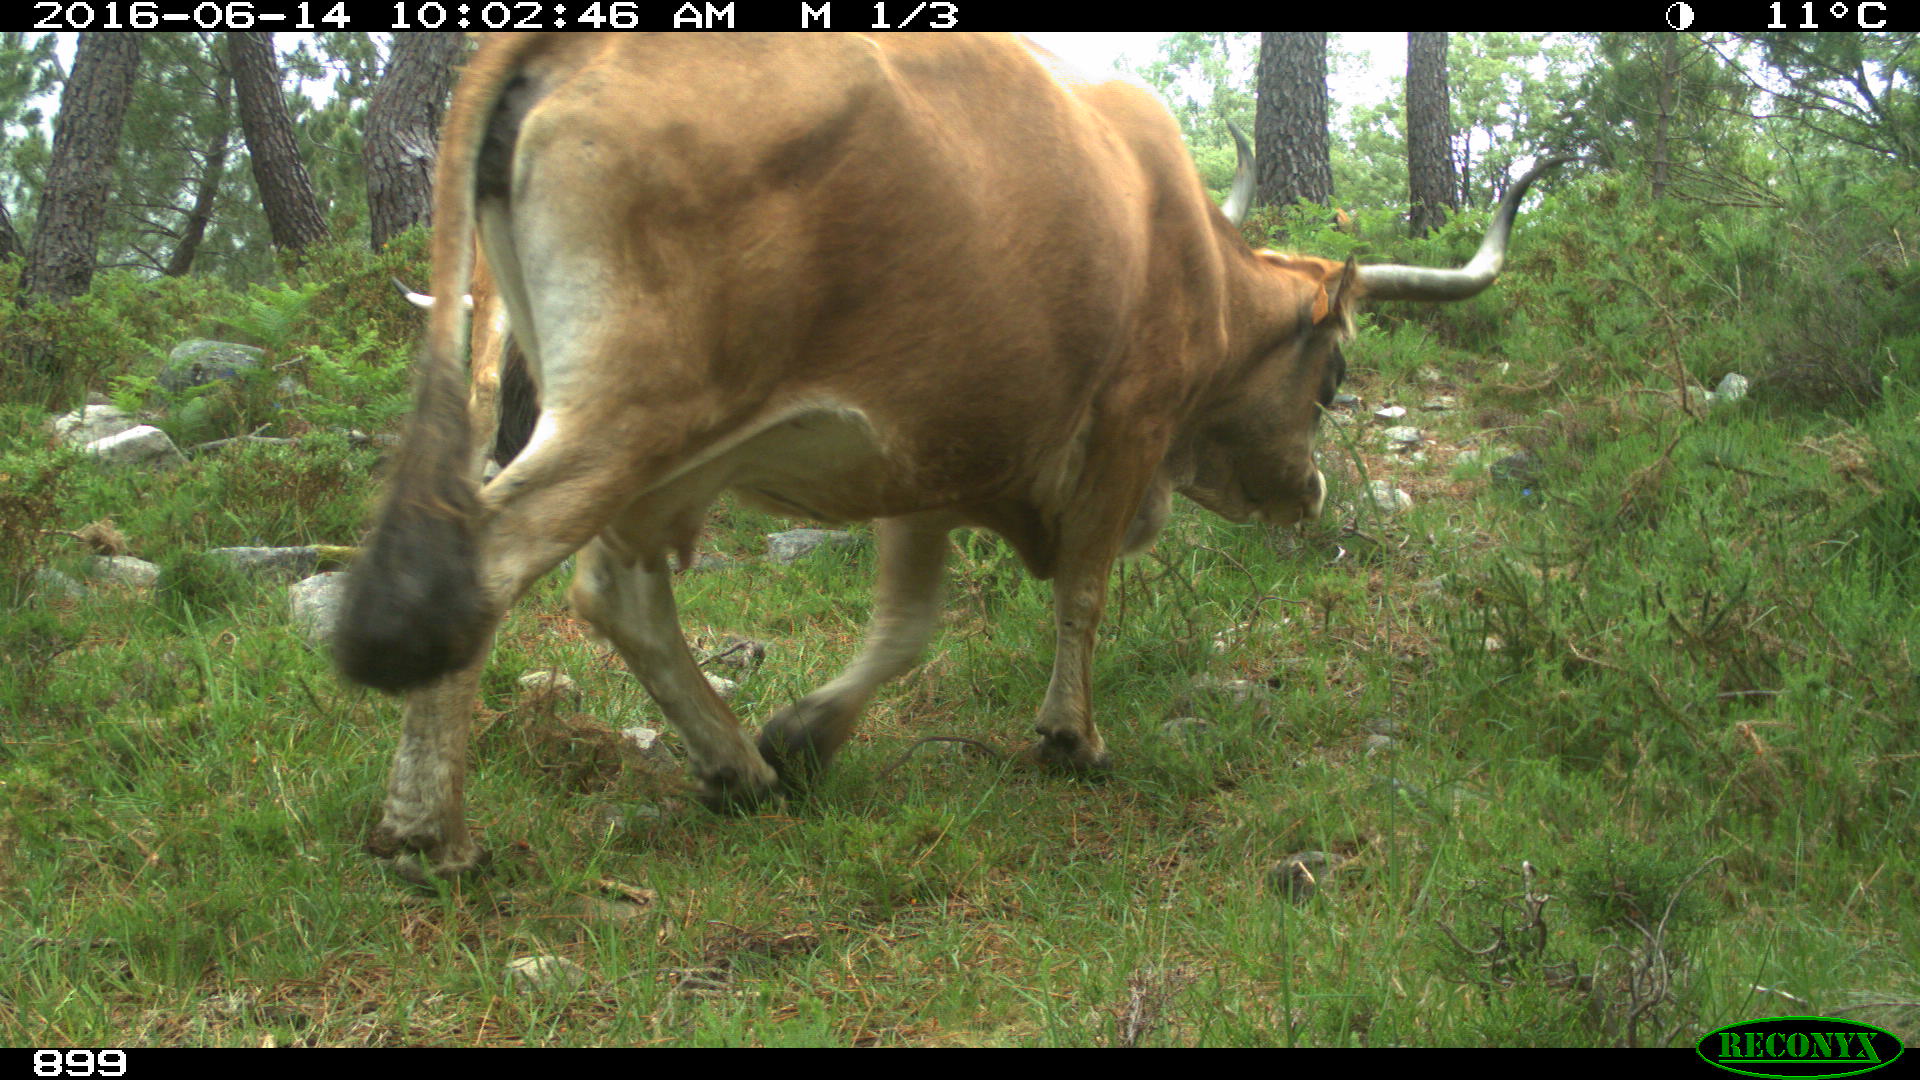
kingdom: Animalia
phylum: Chordata
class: Mammalia
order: Artiodactyla
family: Bovidae
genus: Bos
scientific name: Bos taurus
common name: Domesticated cattle
